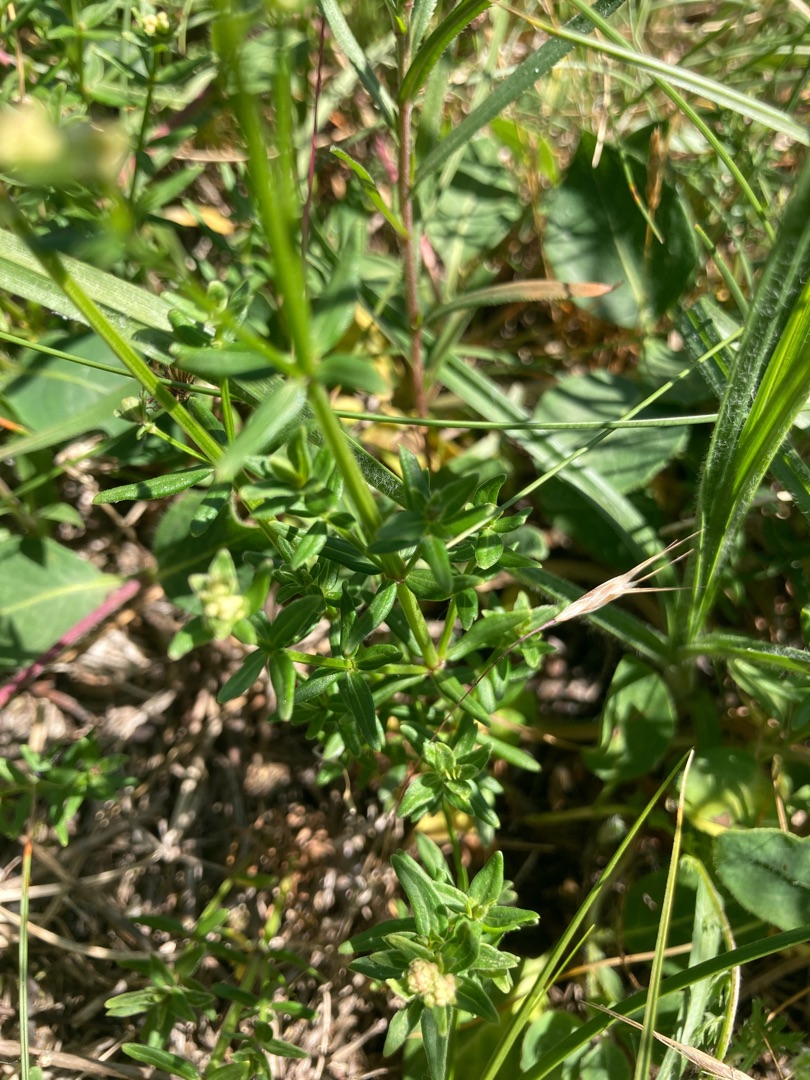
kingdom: Plantae
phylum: Tracheophyta
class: Magnoliopsida
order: Gentianales
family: Rubiaceae
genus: Galium
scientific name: Galium boreale
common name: Trenervet snerre
